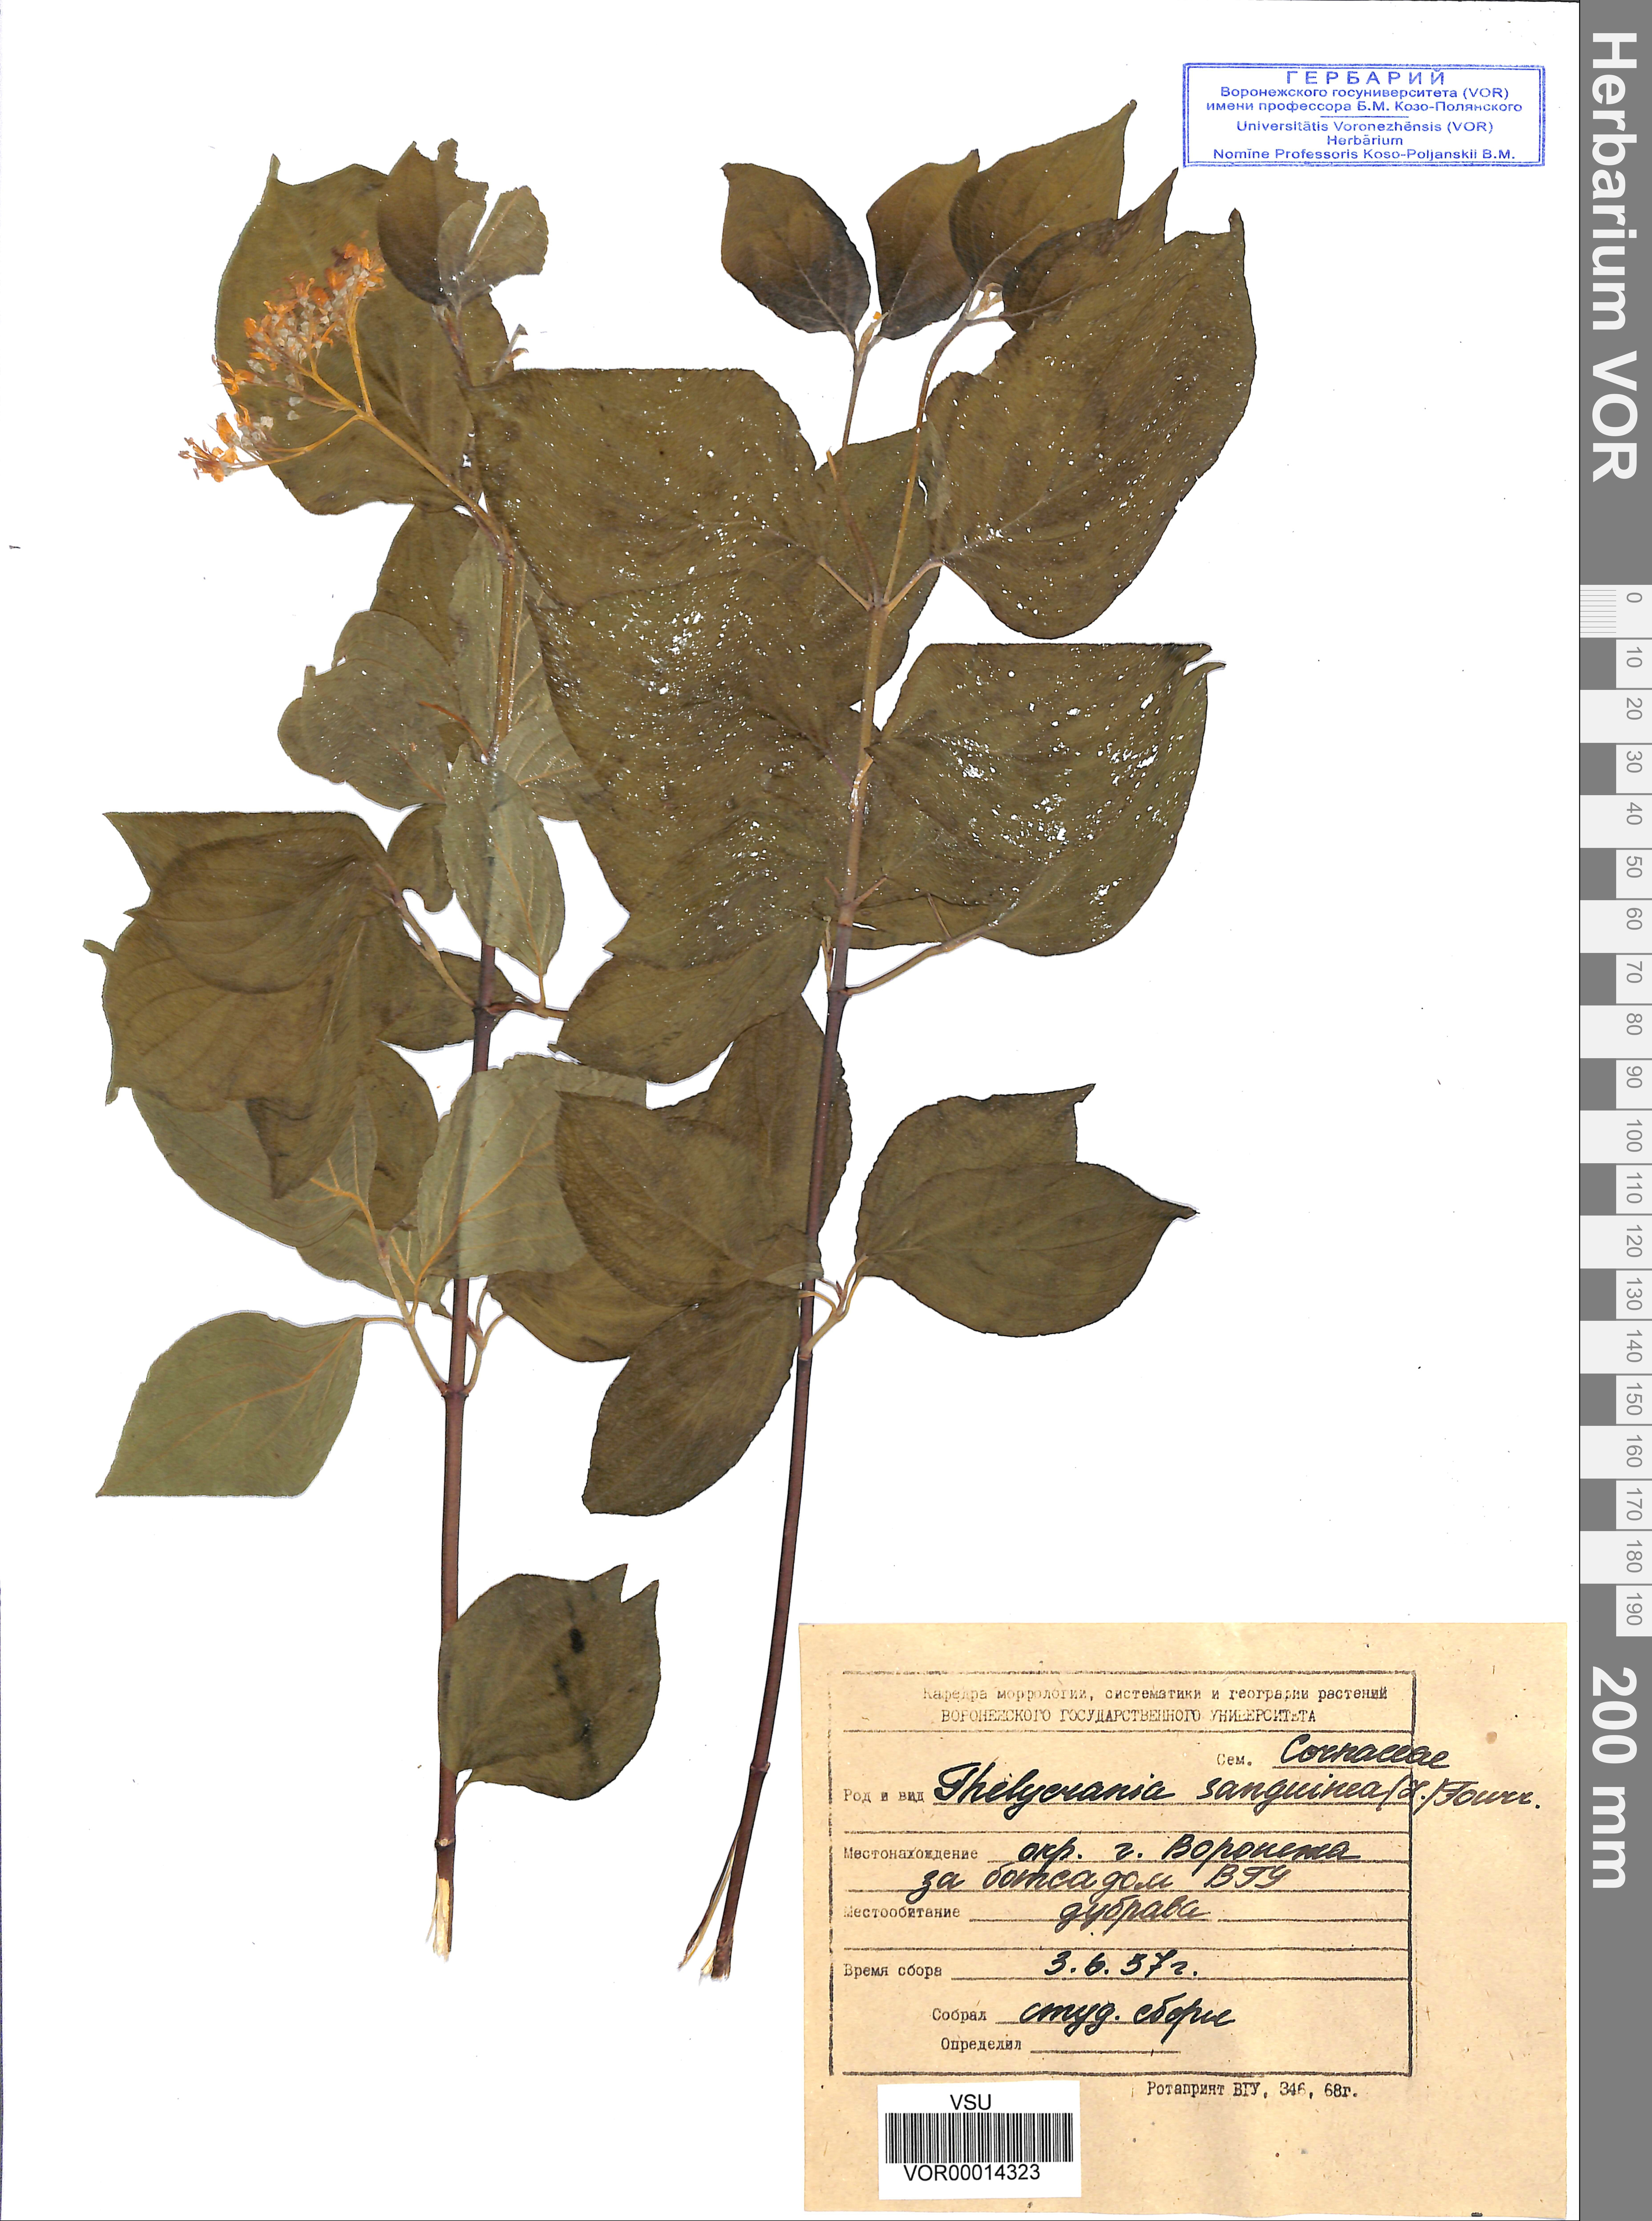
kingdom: Plantae
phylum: Tracheophyta
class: Magnoliopsida
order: Cornales
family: Cornaceae
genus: Cornus
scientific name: Cornus sanguinea
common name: Dogwood
